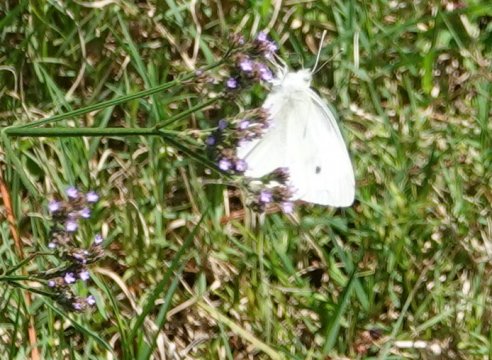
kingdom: Animalia
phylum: Arthropoda
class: Insecta
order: Lepidoptera
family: Pieridae
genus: Pieris
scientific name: Pieris rapae
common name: Cabbage White
